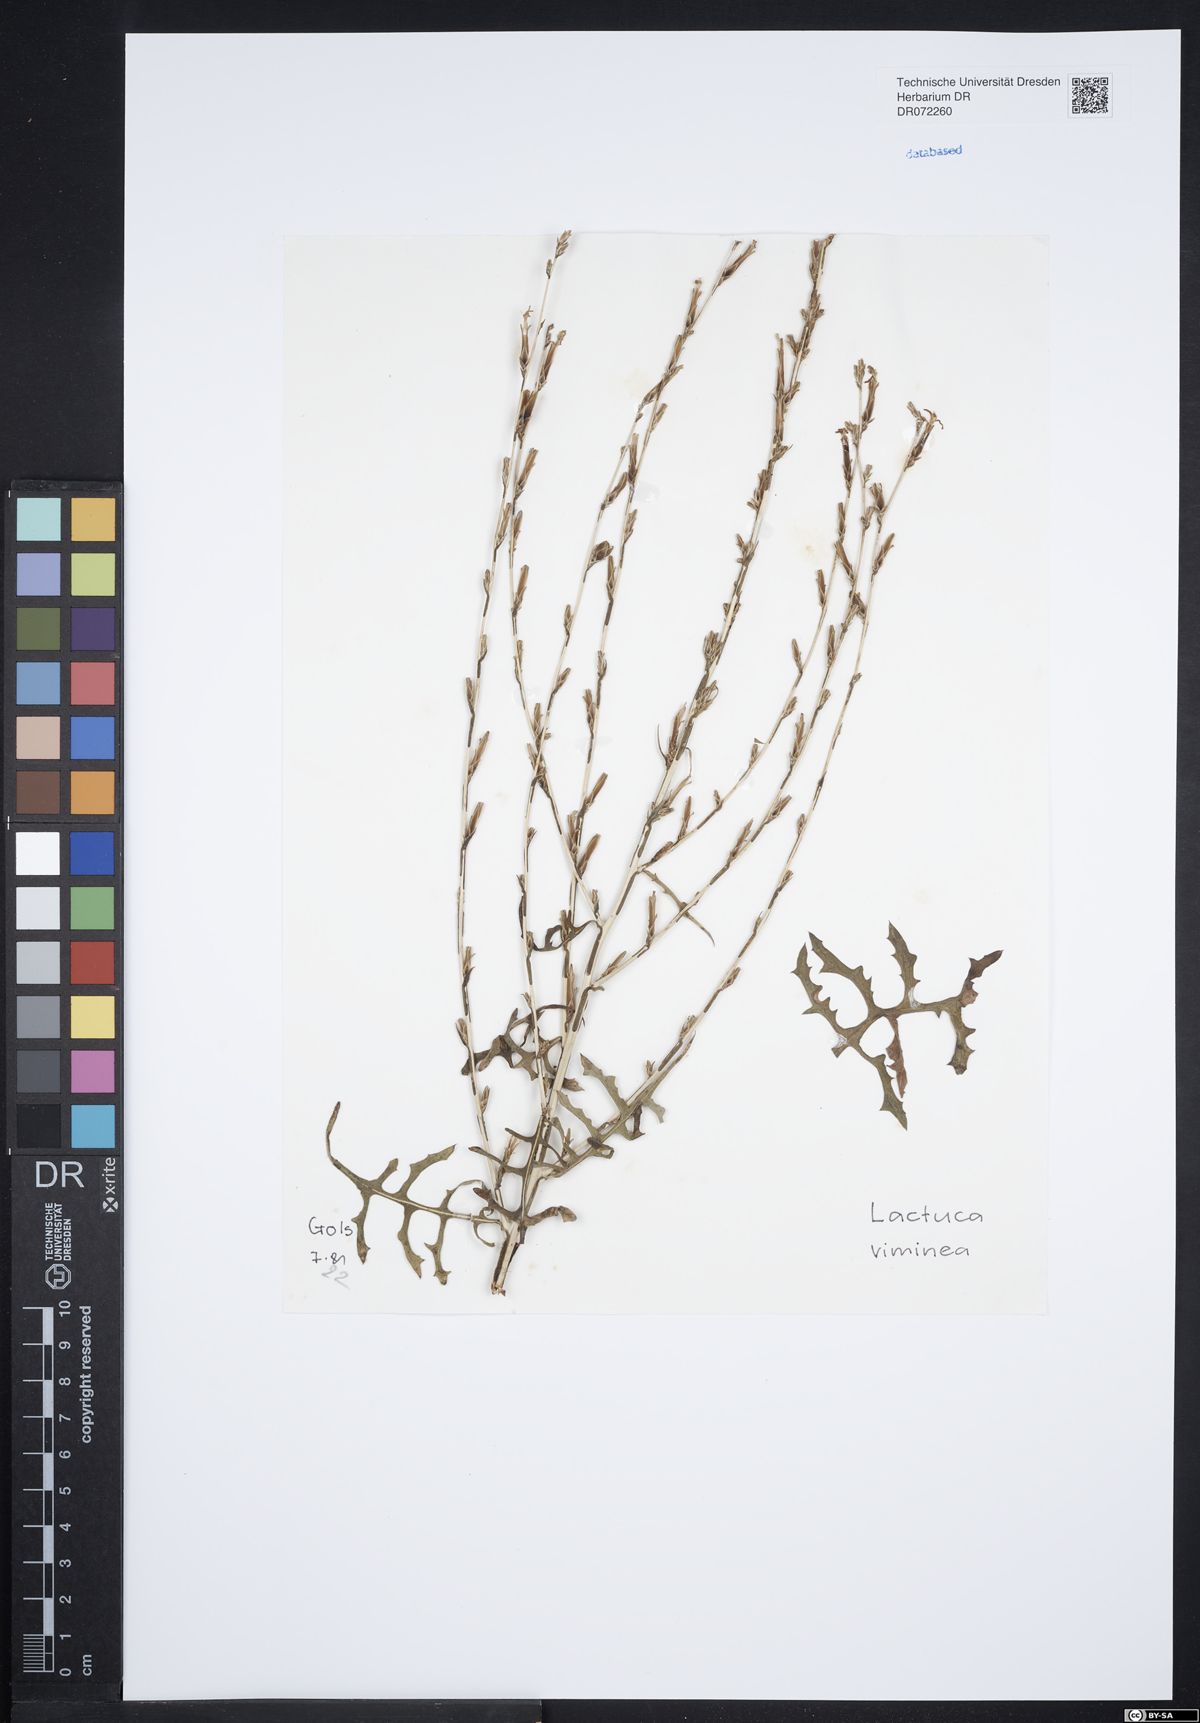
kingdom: Plantae
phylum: Tracheophyta
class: Magnoliopsida
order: Asterales
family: Asteraceae
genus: Lactuca
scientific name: Lactuca viminea
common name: Pliant lettuce
